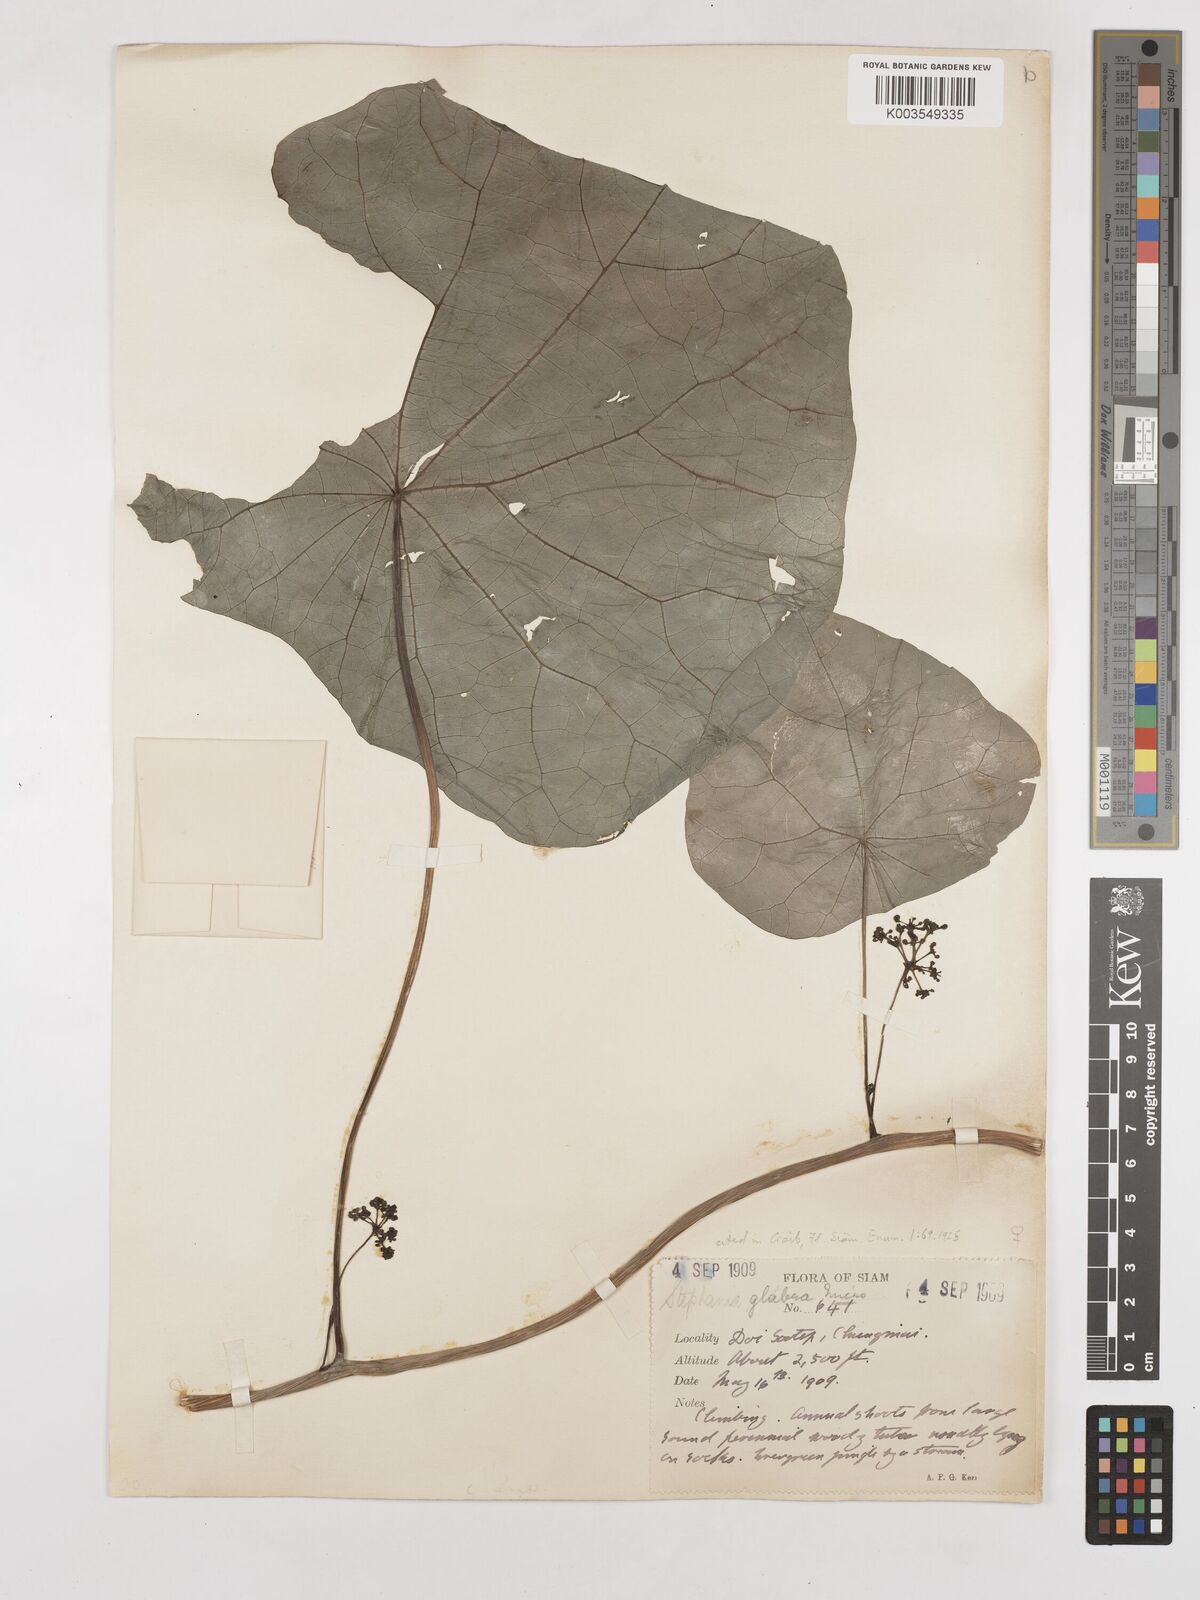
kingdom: Plantae
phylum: Tracheophyta
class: Magnoliopsida
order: Ranunculales
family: Menispermaceae
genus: Stephania
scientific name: Stephania rotunda
